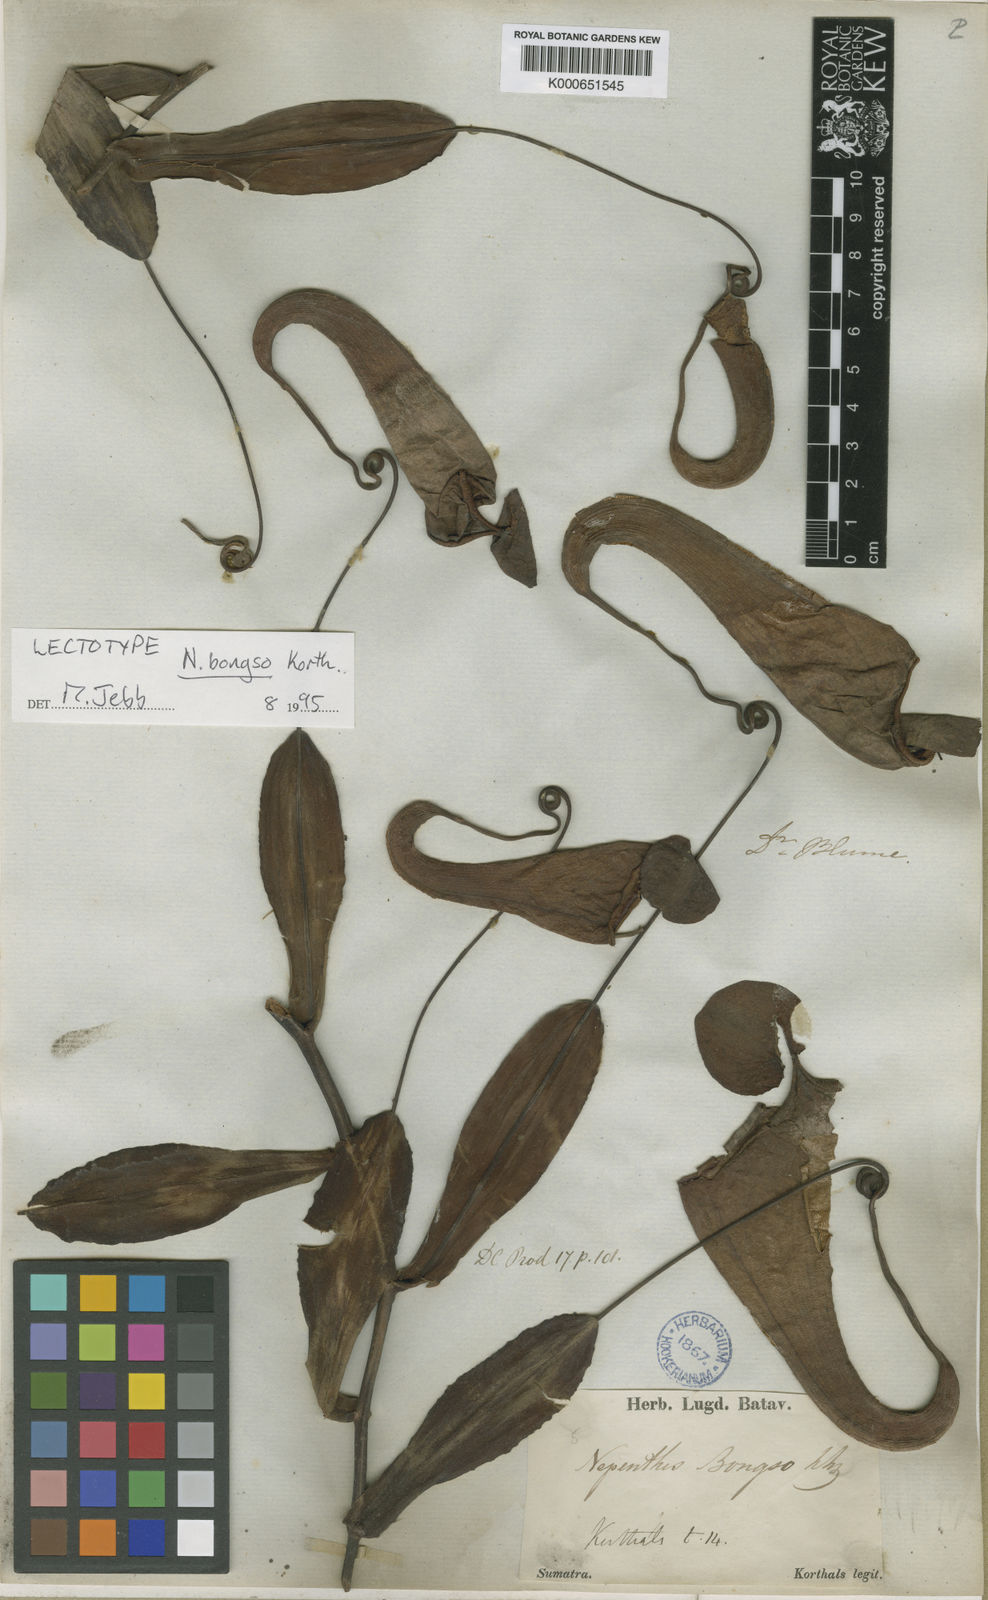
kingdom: Plantae
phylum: Tracheophyta
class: Magnoliopsida
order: Caryophyllales
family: Nepenthaceae
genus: Nepenthes
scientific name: Nepenthes bongso
